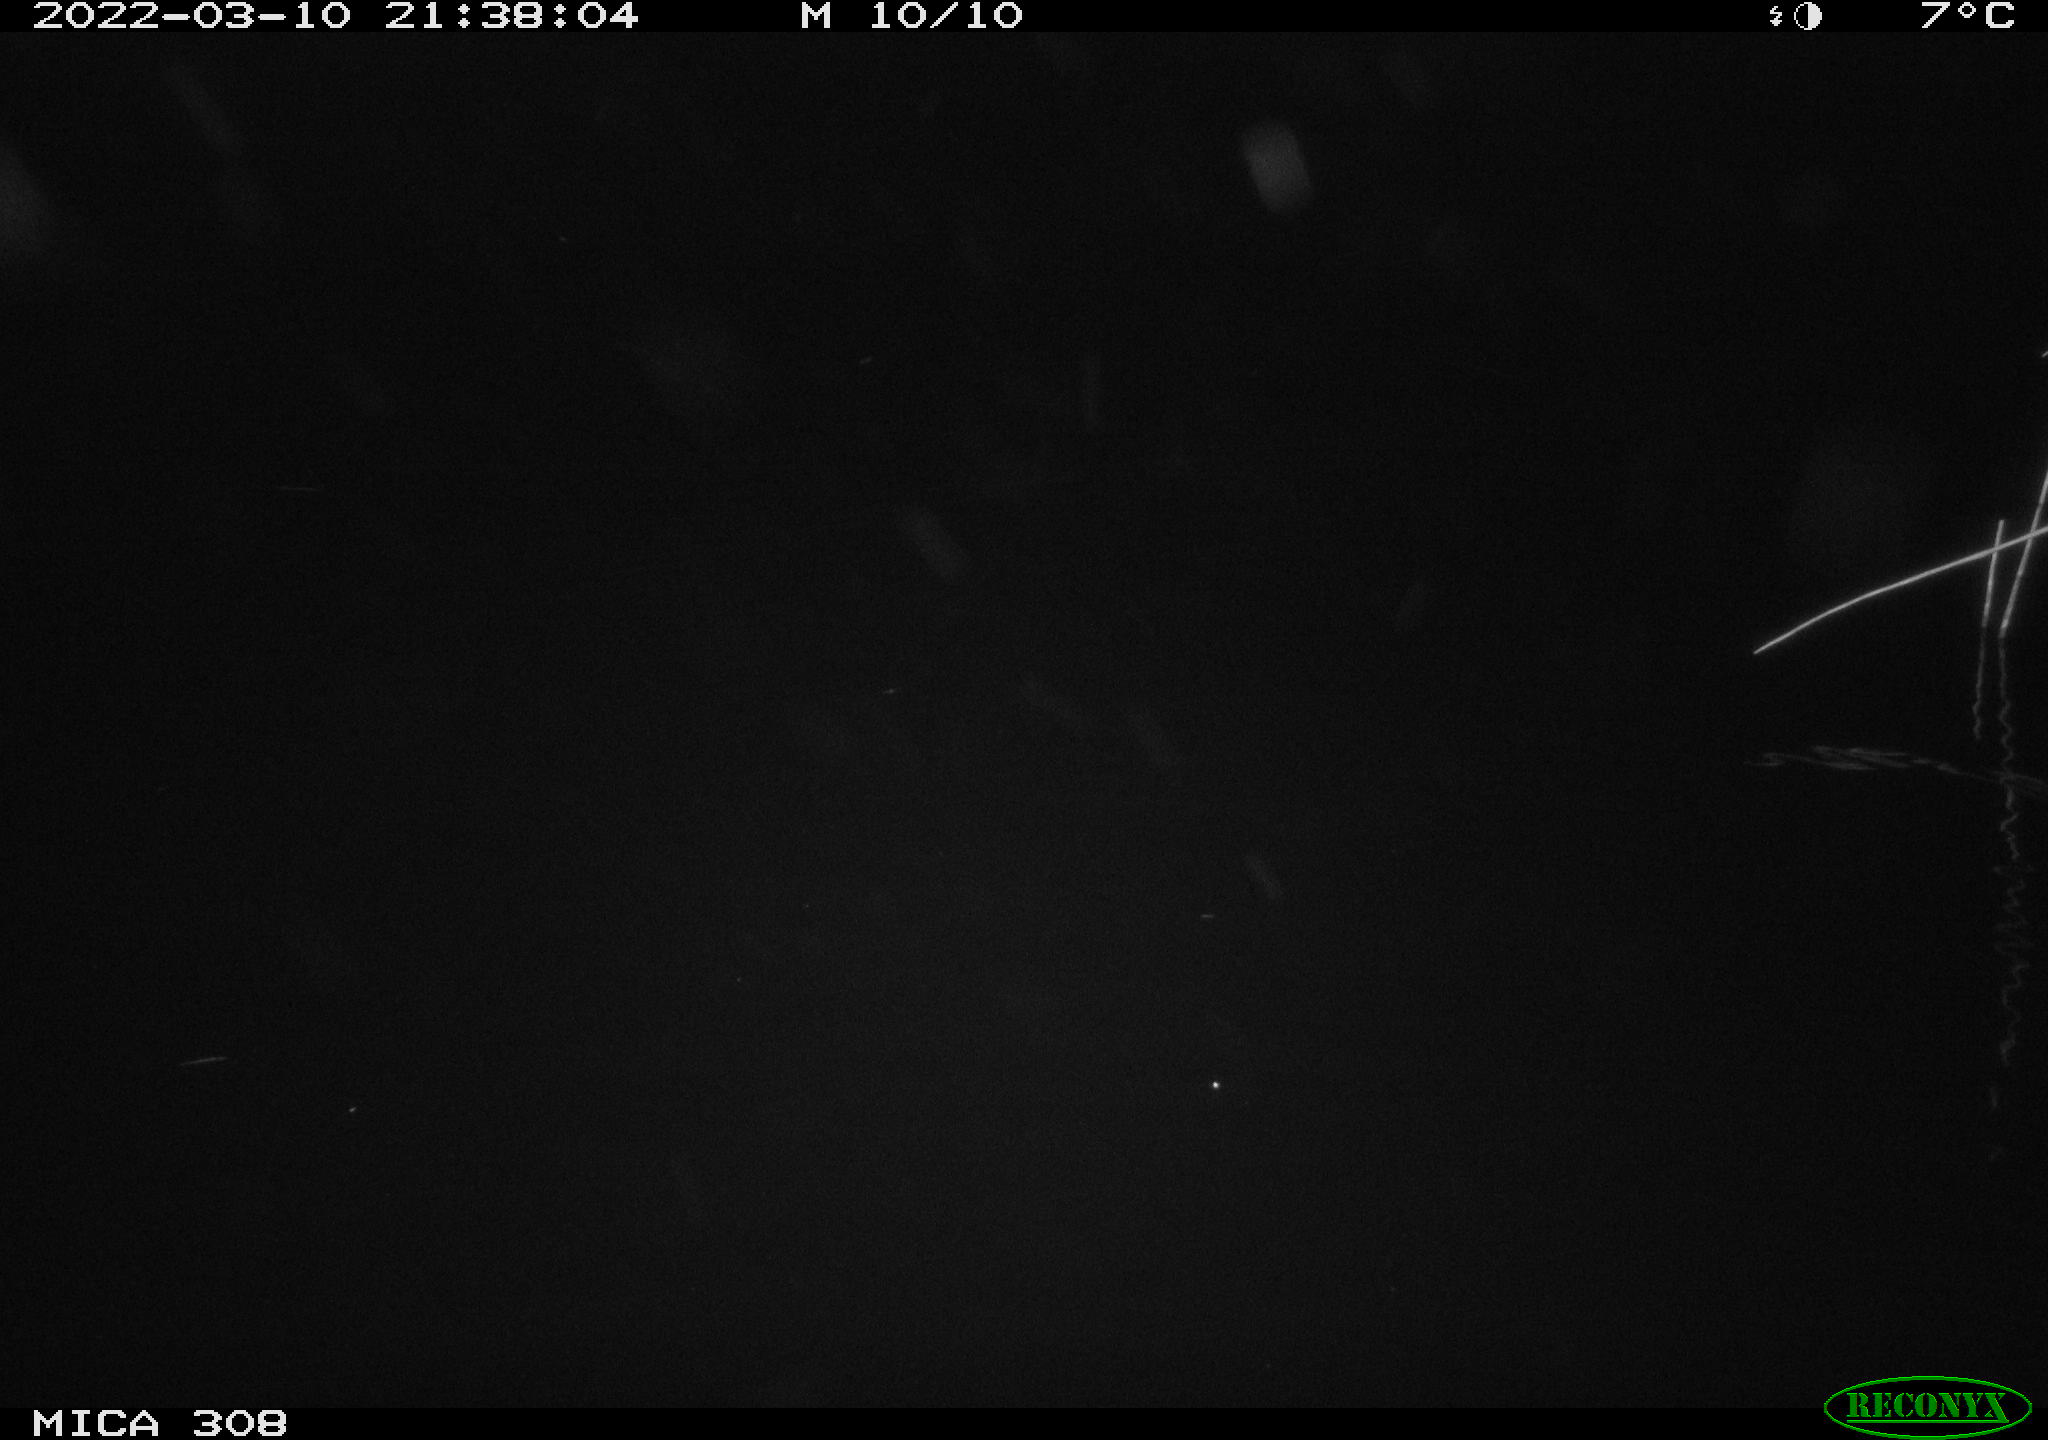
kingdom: Animalia
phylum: Chordata
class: Aves
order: Anseriformes
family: Anatidae
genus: Anas
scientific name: Anas platyrhynchos
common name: Mallard
